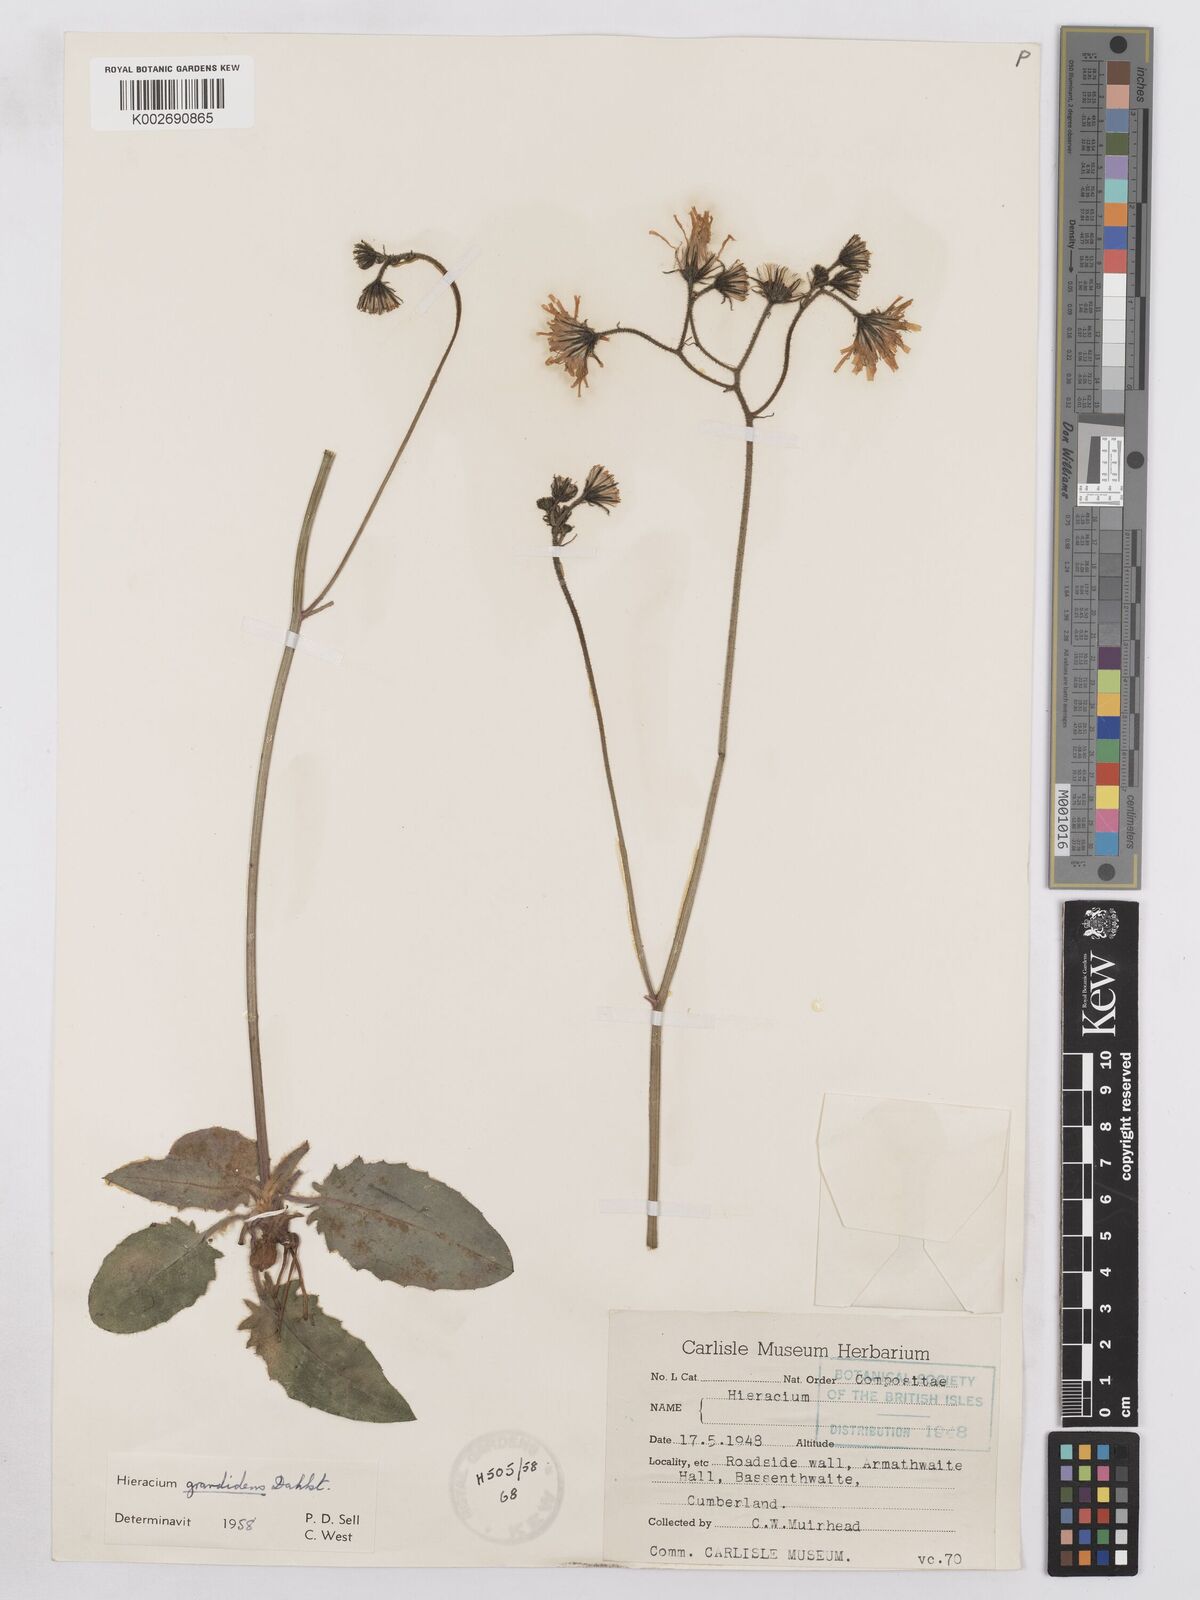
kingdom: Plantae
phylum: Tracheophyta
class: Magnoliopsida
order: Asterales
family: Asteraceae
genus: Hieracium
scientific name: Hieracium murorum
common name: Wall hawkweed
